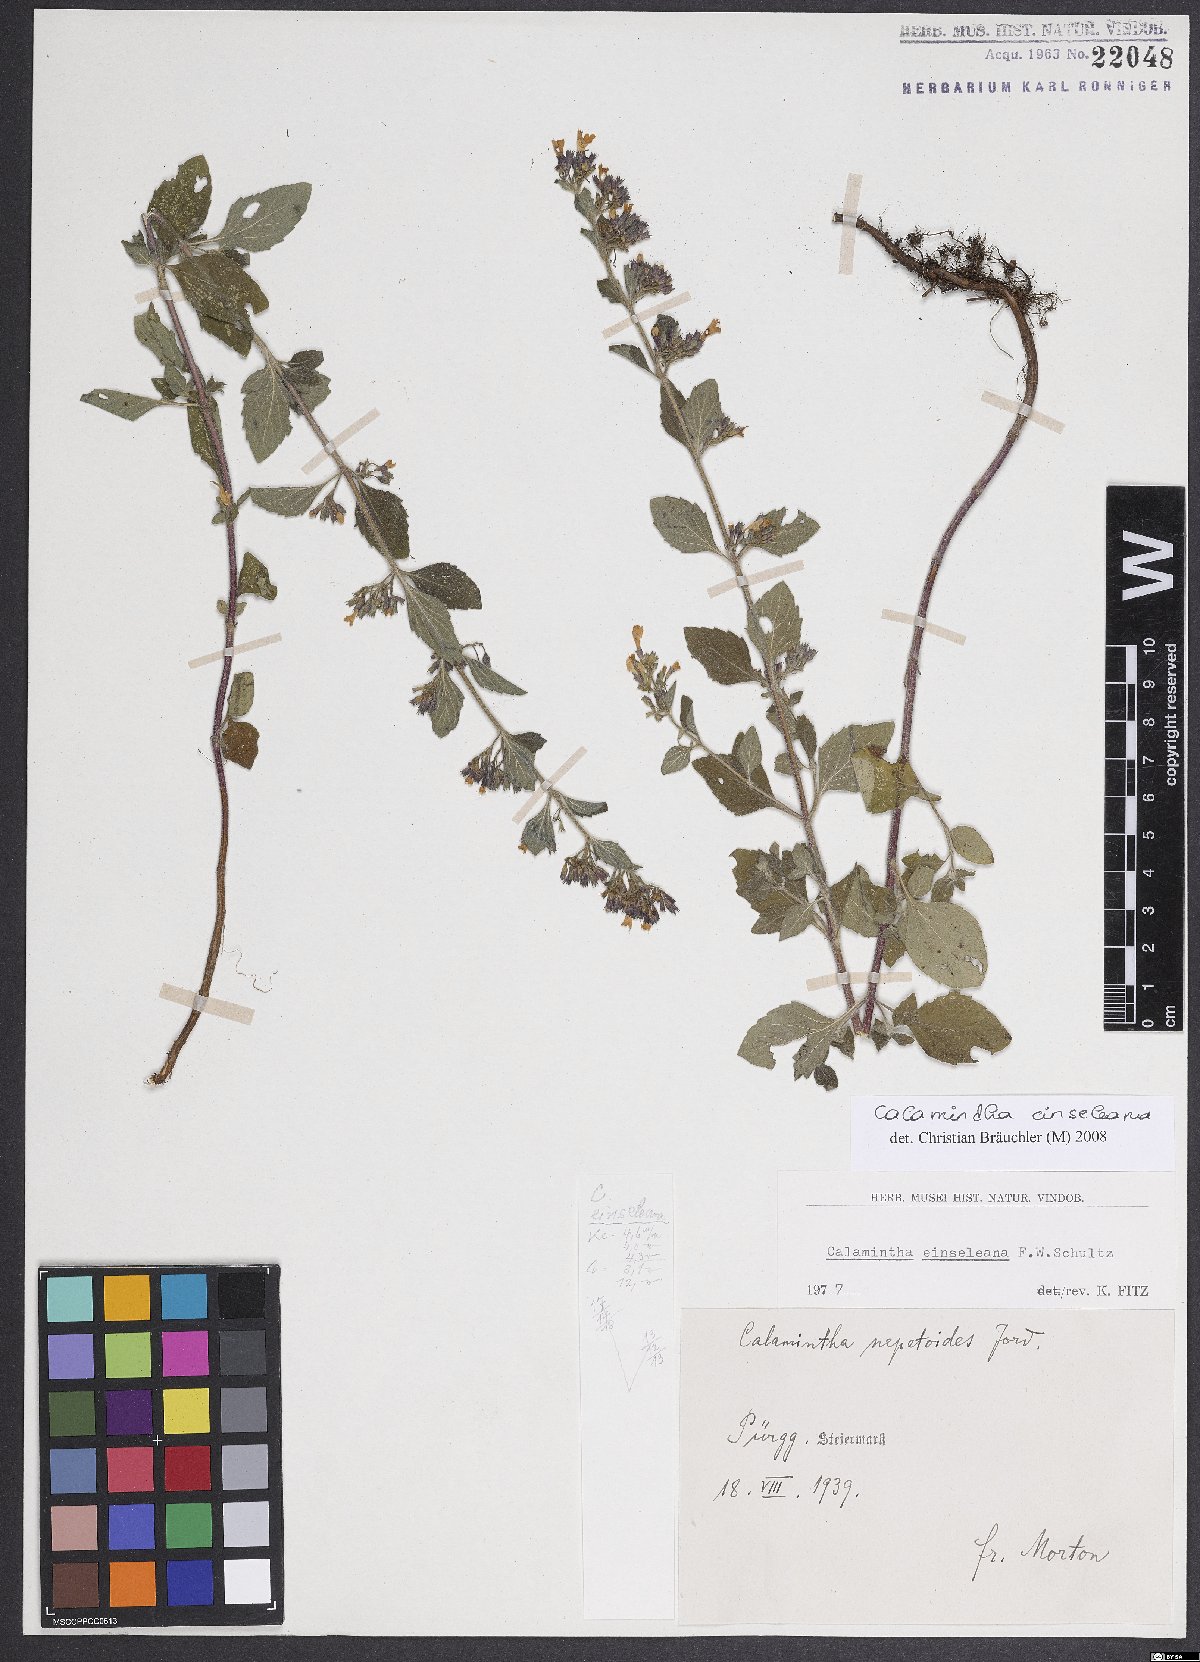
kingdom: Plantae
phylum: Tracheophyta
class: Magnoliopsida
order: Lamiales
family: Lamiaceae
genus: Clinopodium
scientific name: Clinopodium nepeta
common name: Lesser calamint
